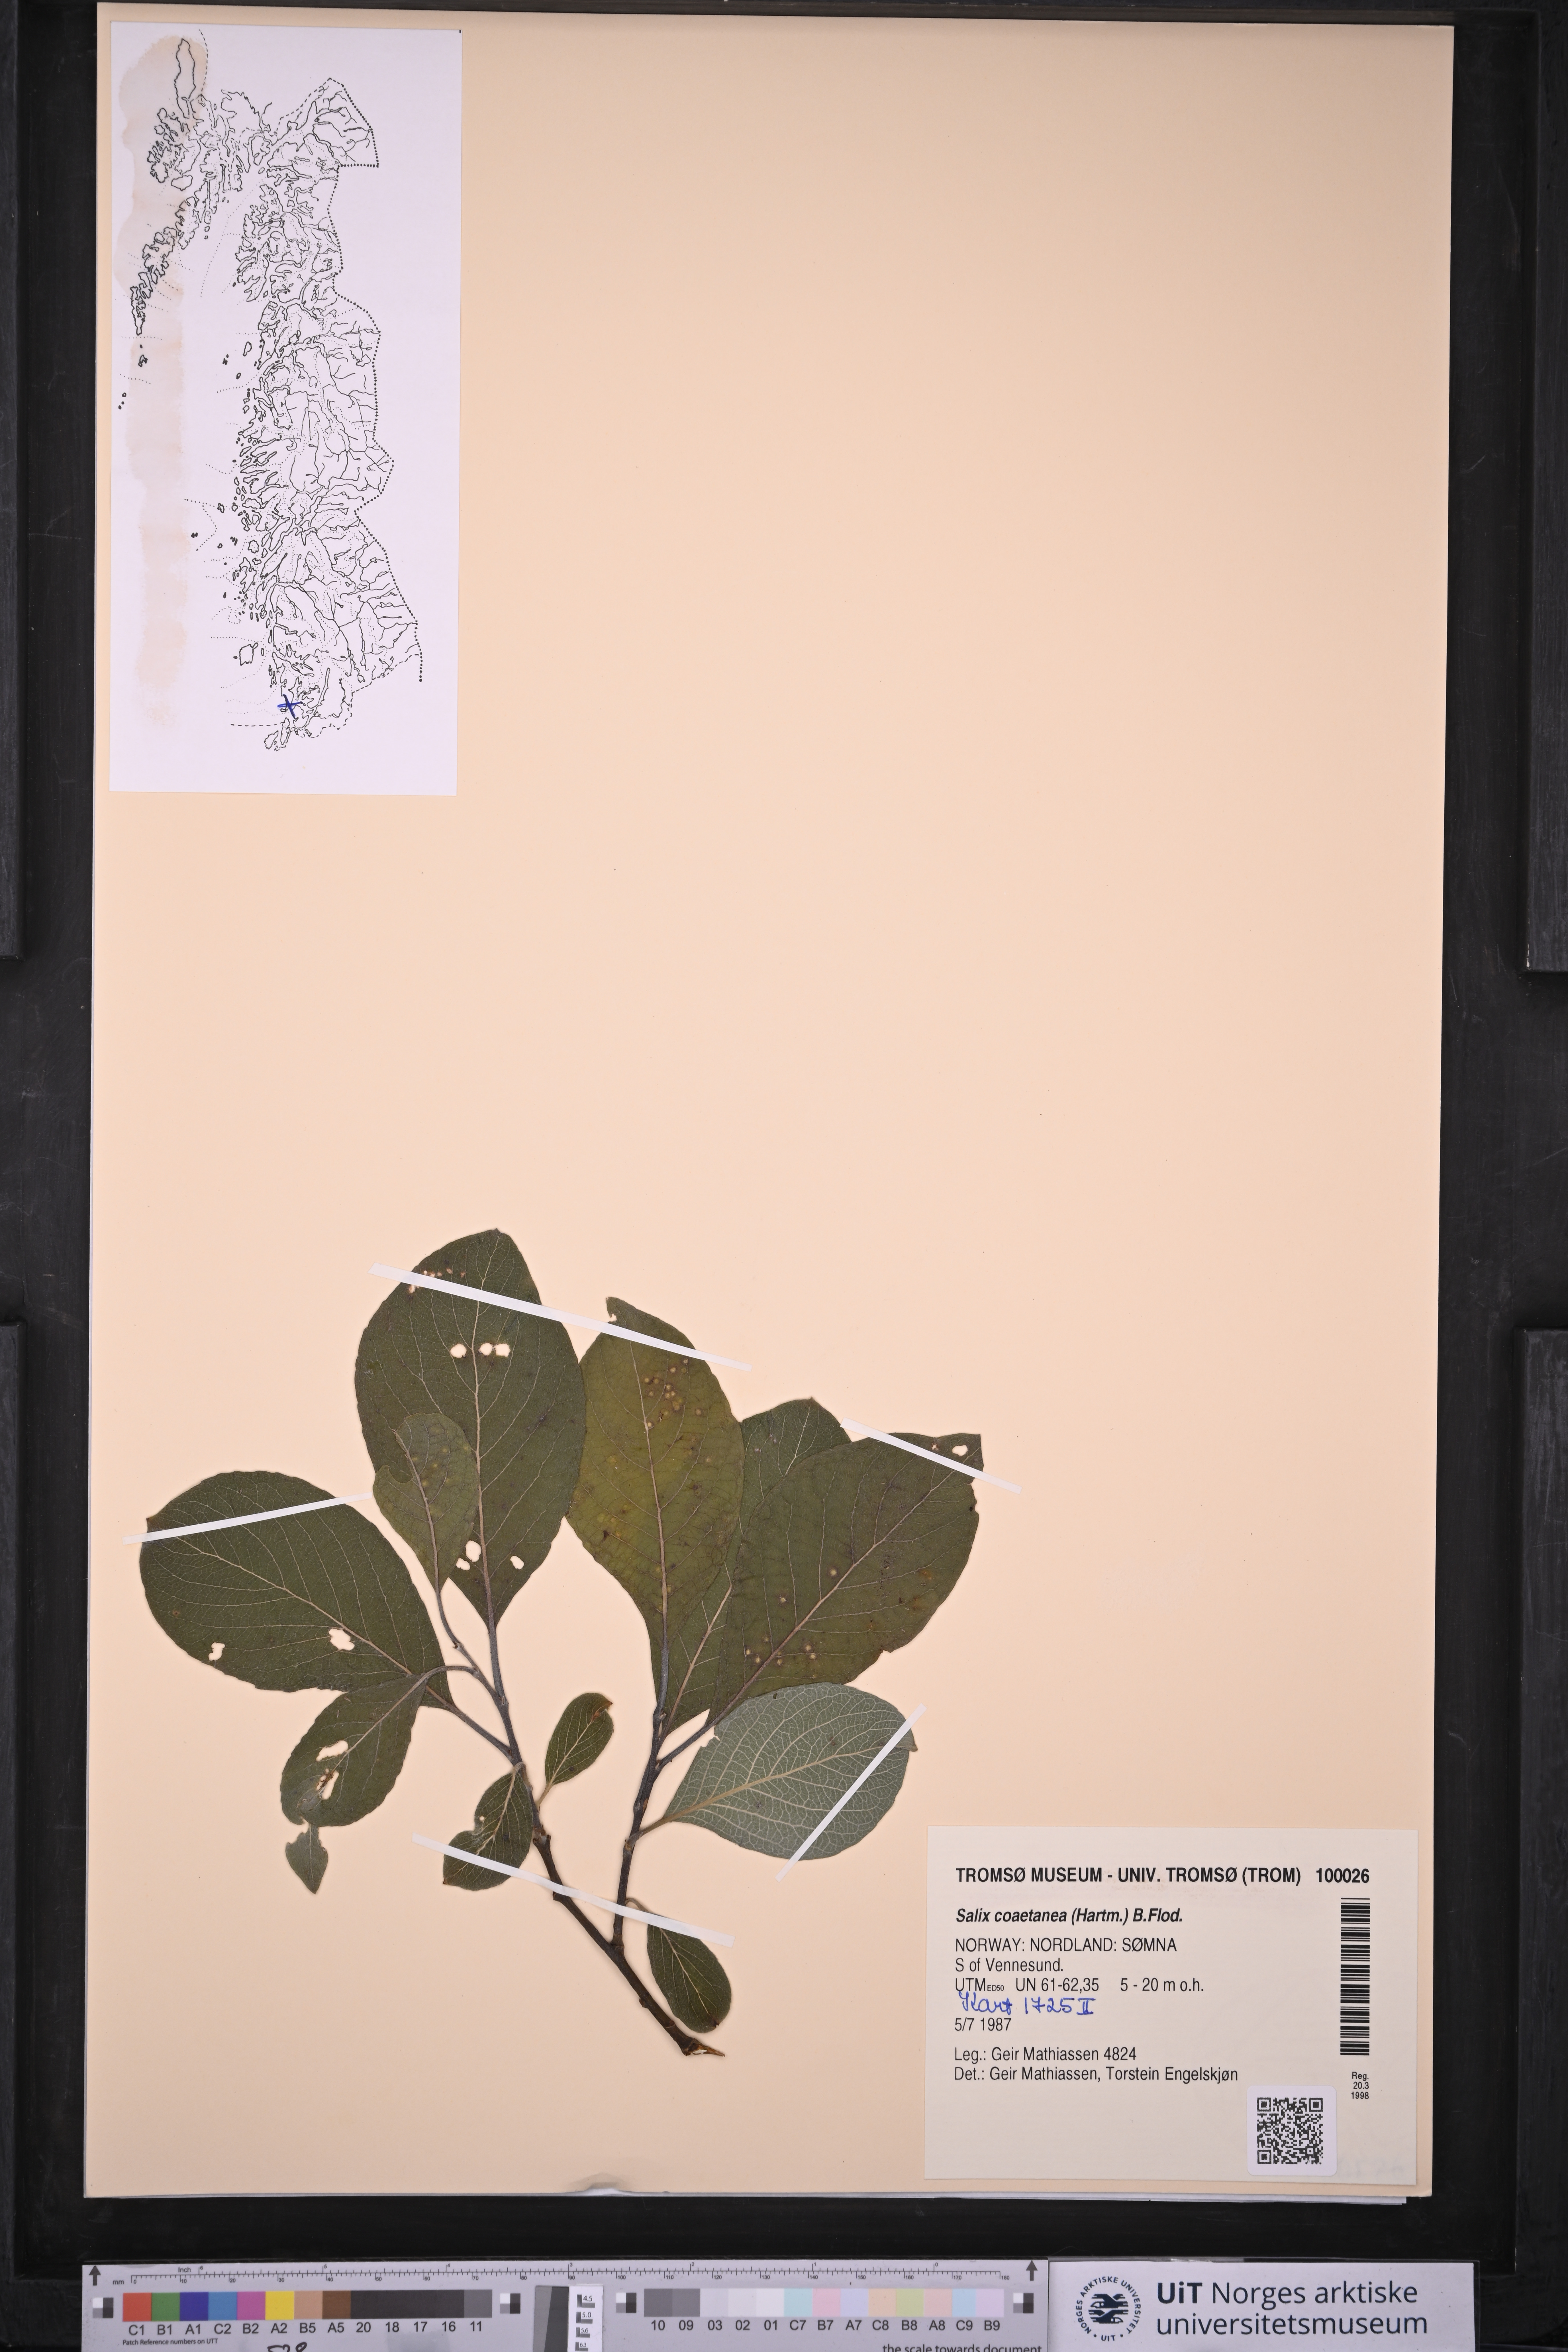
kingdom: Plantae
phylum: Tracheophyta
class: Magnoliopsida
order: Malpighiales
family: Salicaceae
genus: Salix
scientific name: Salix caprea
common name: Goat willow
